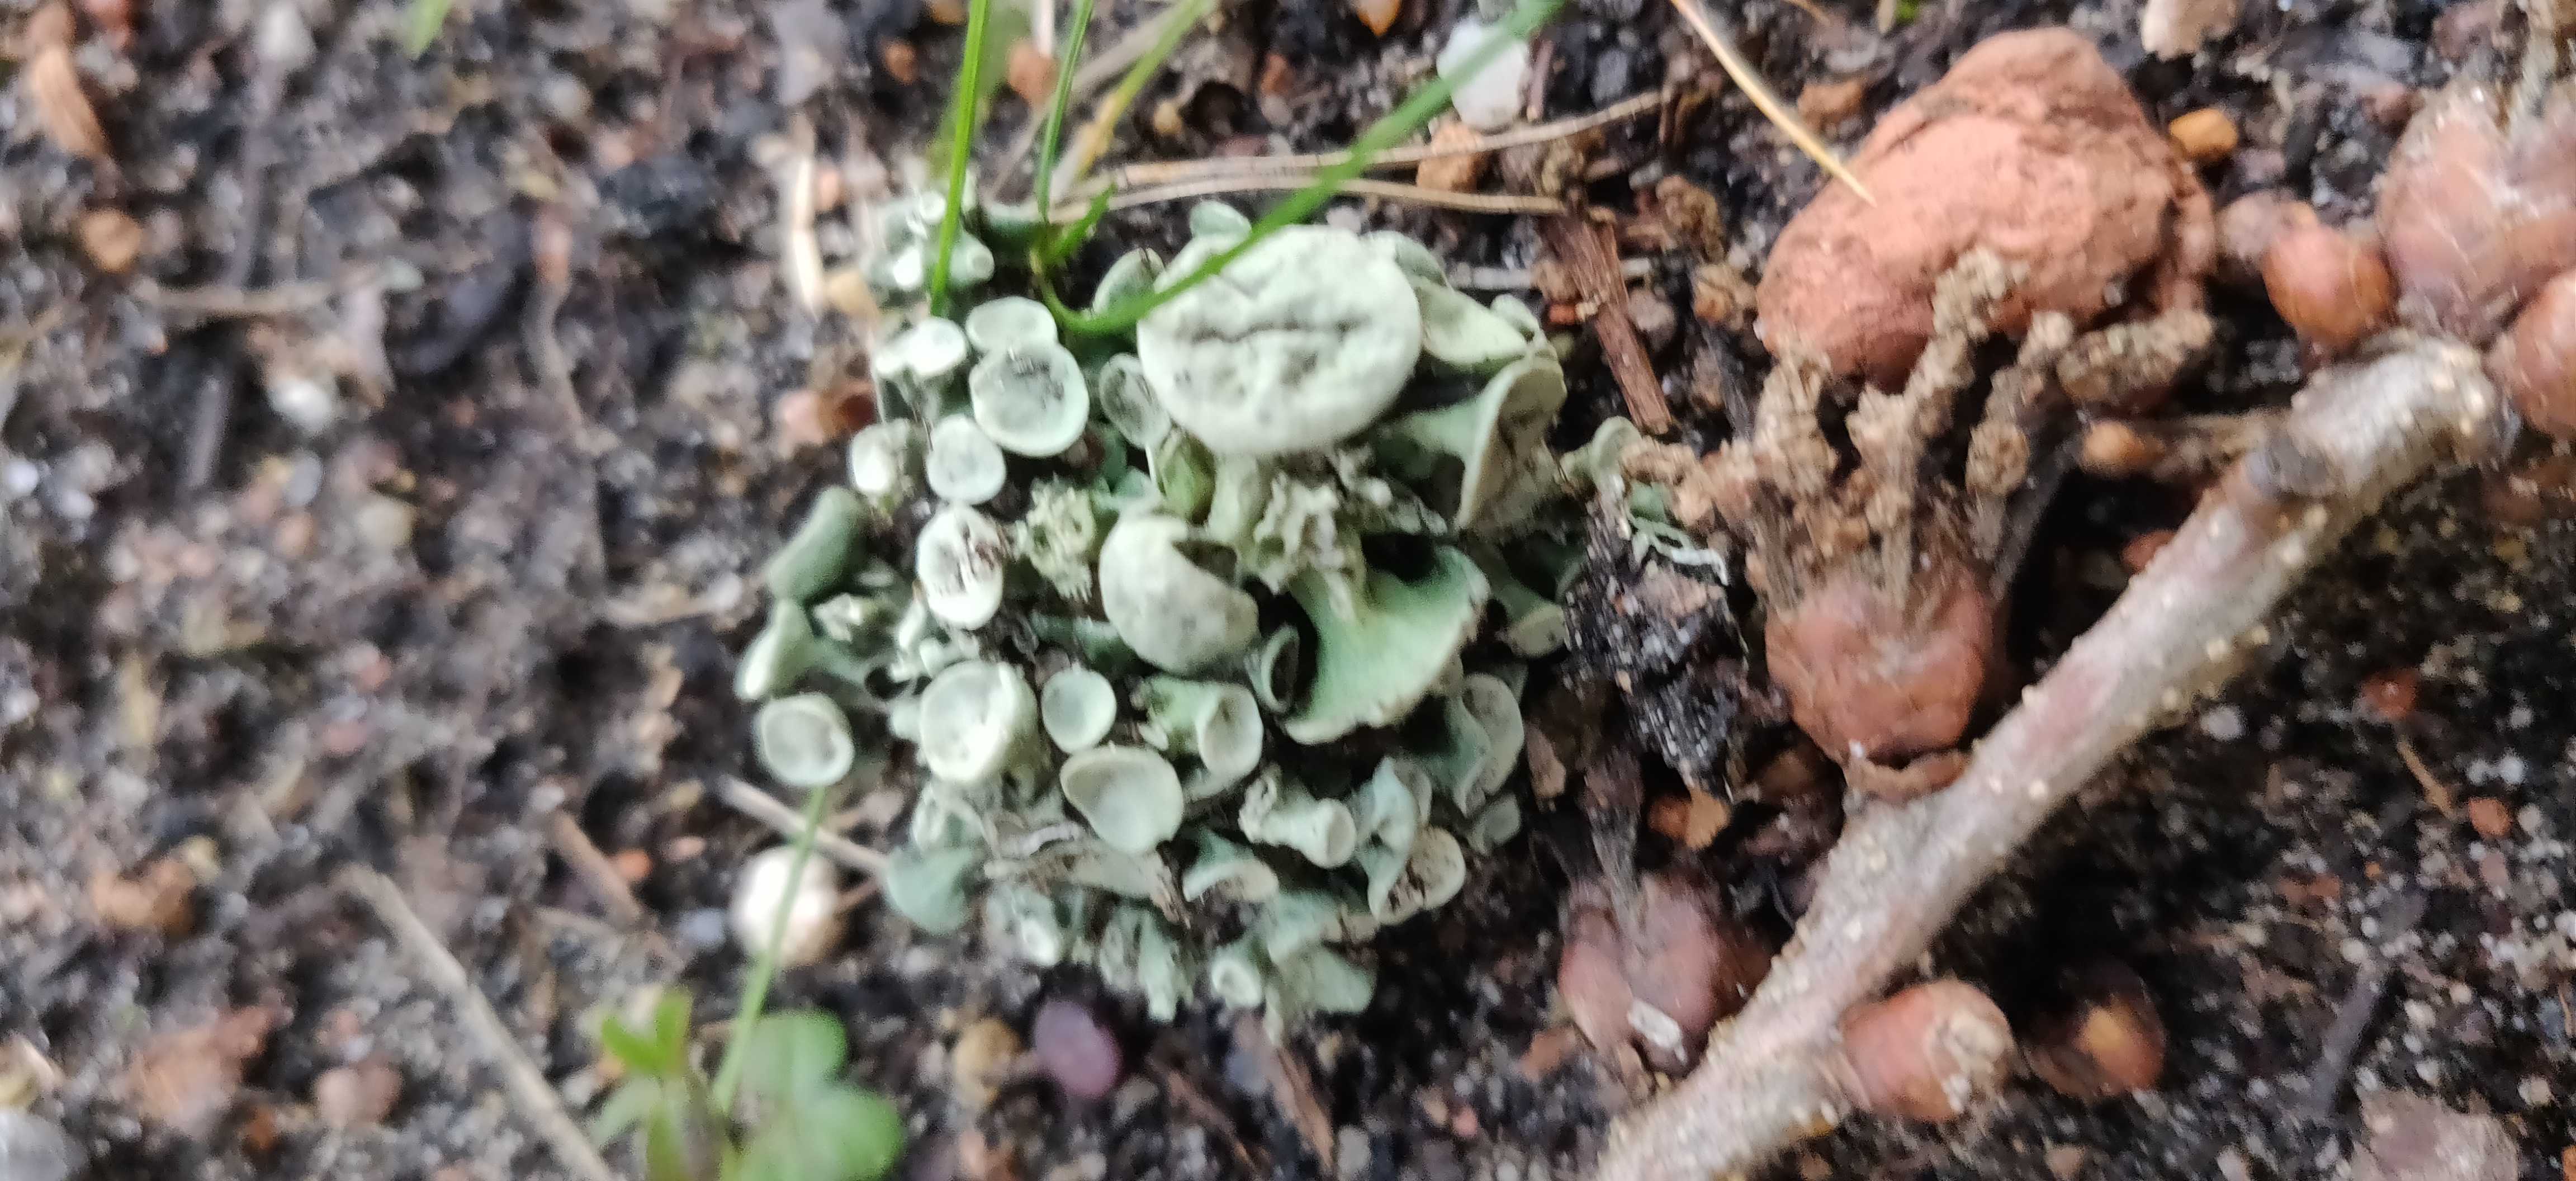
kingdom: Fungi
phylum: Ascomycota
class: Lecanoromycetes
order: Lecanorales
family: Ramalinaceae
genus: Ramalina
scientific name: Ramalina fastigiata
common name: tue-grenlav
